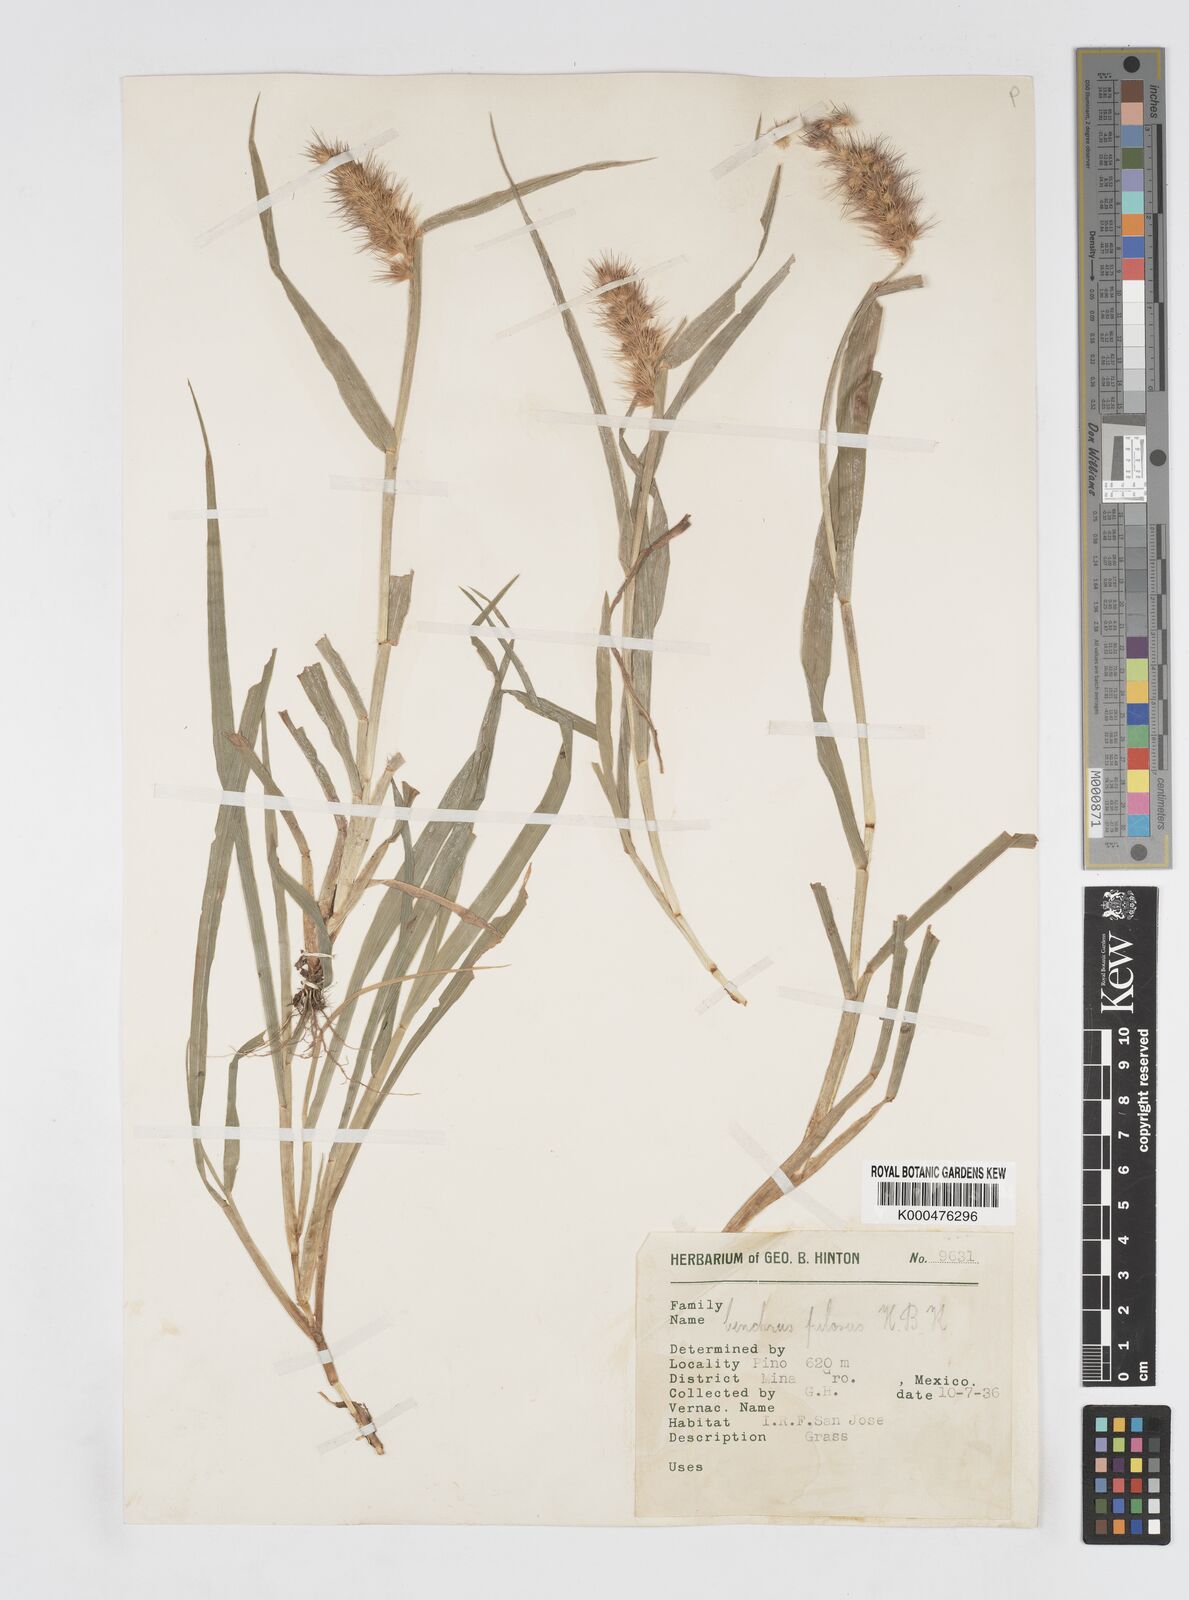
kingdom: Plantae
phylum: Tracheophyta
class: Liliopsida
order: Poales
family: Poaceae
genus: Cenchrus
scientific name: Cenchrus pilosus
